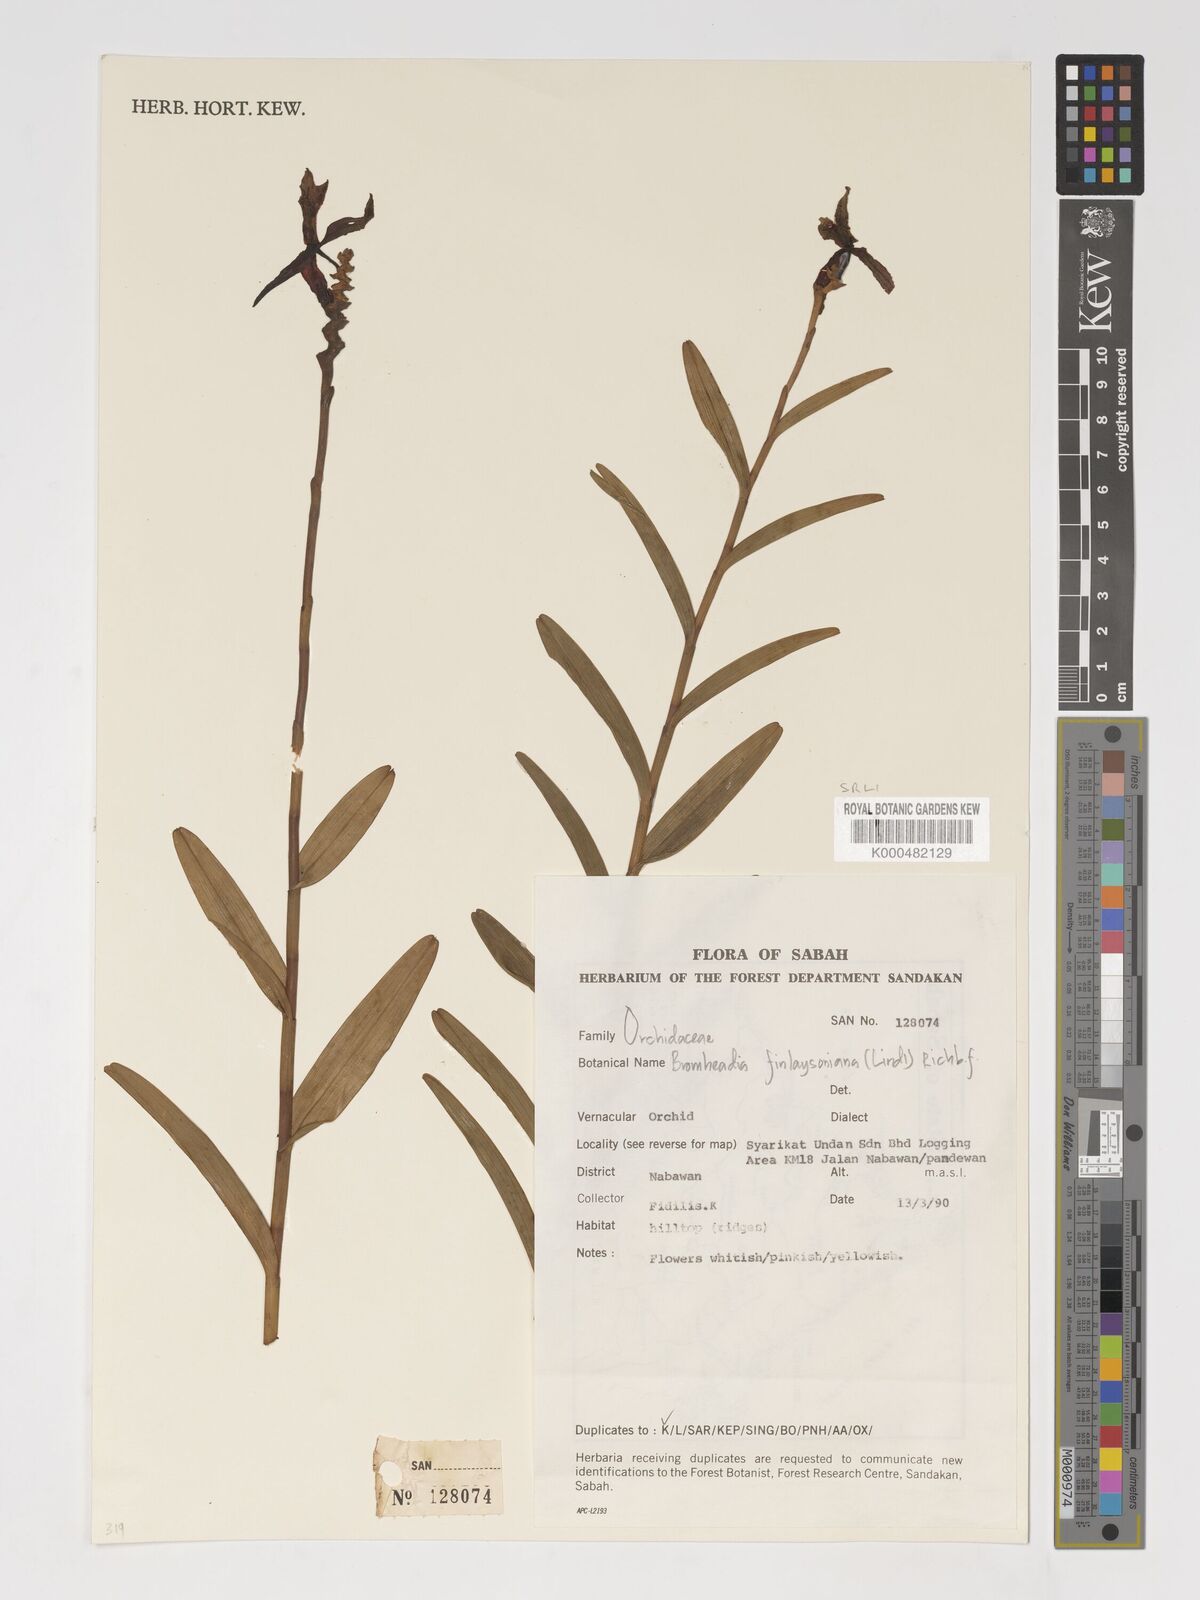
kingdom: Plantae
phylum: Tracheophyta
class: Liliopsida
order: Asparagales
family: Orchidaceae
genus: Bromheadia
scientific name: Bromheadia finlaysoniana
